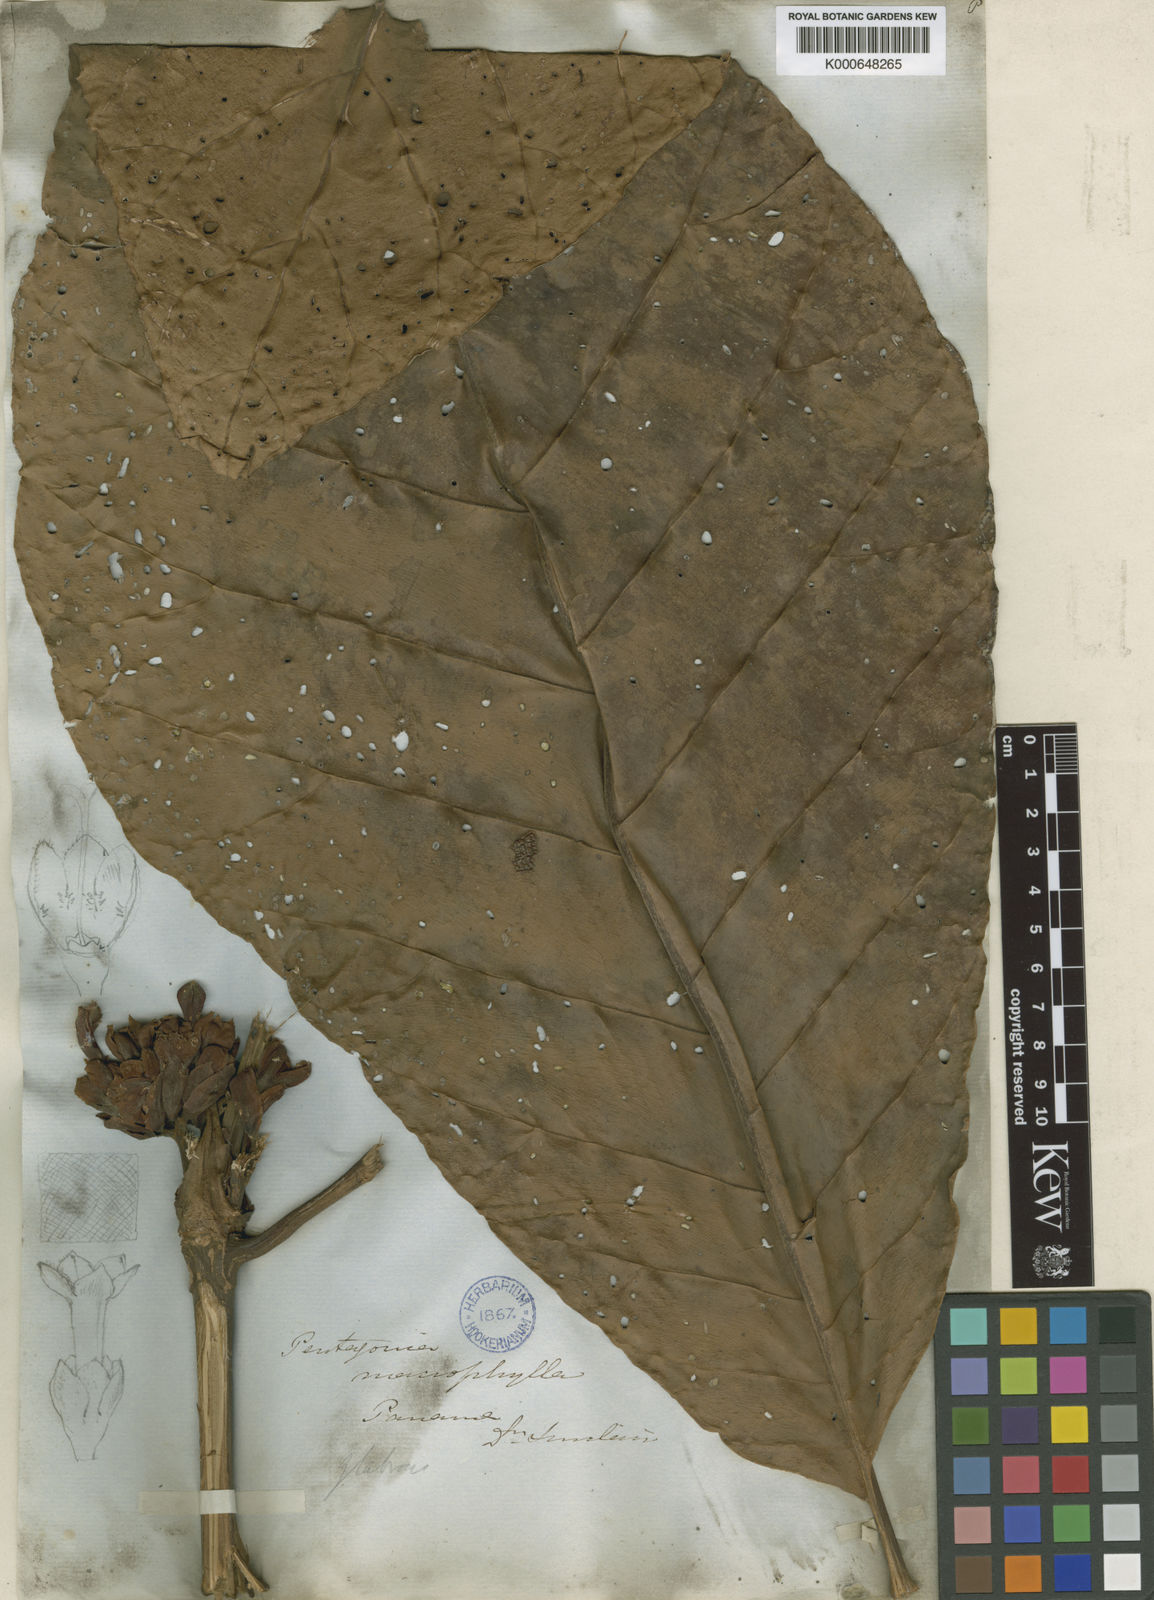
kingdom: Plantae
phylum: Tracheophyta
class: Magnoliopsida
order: Gentianales
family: Rubiaceae
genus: Pentagonia
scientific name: Pentagonia macrophylla
